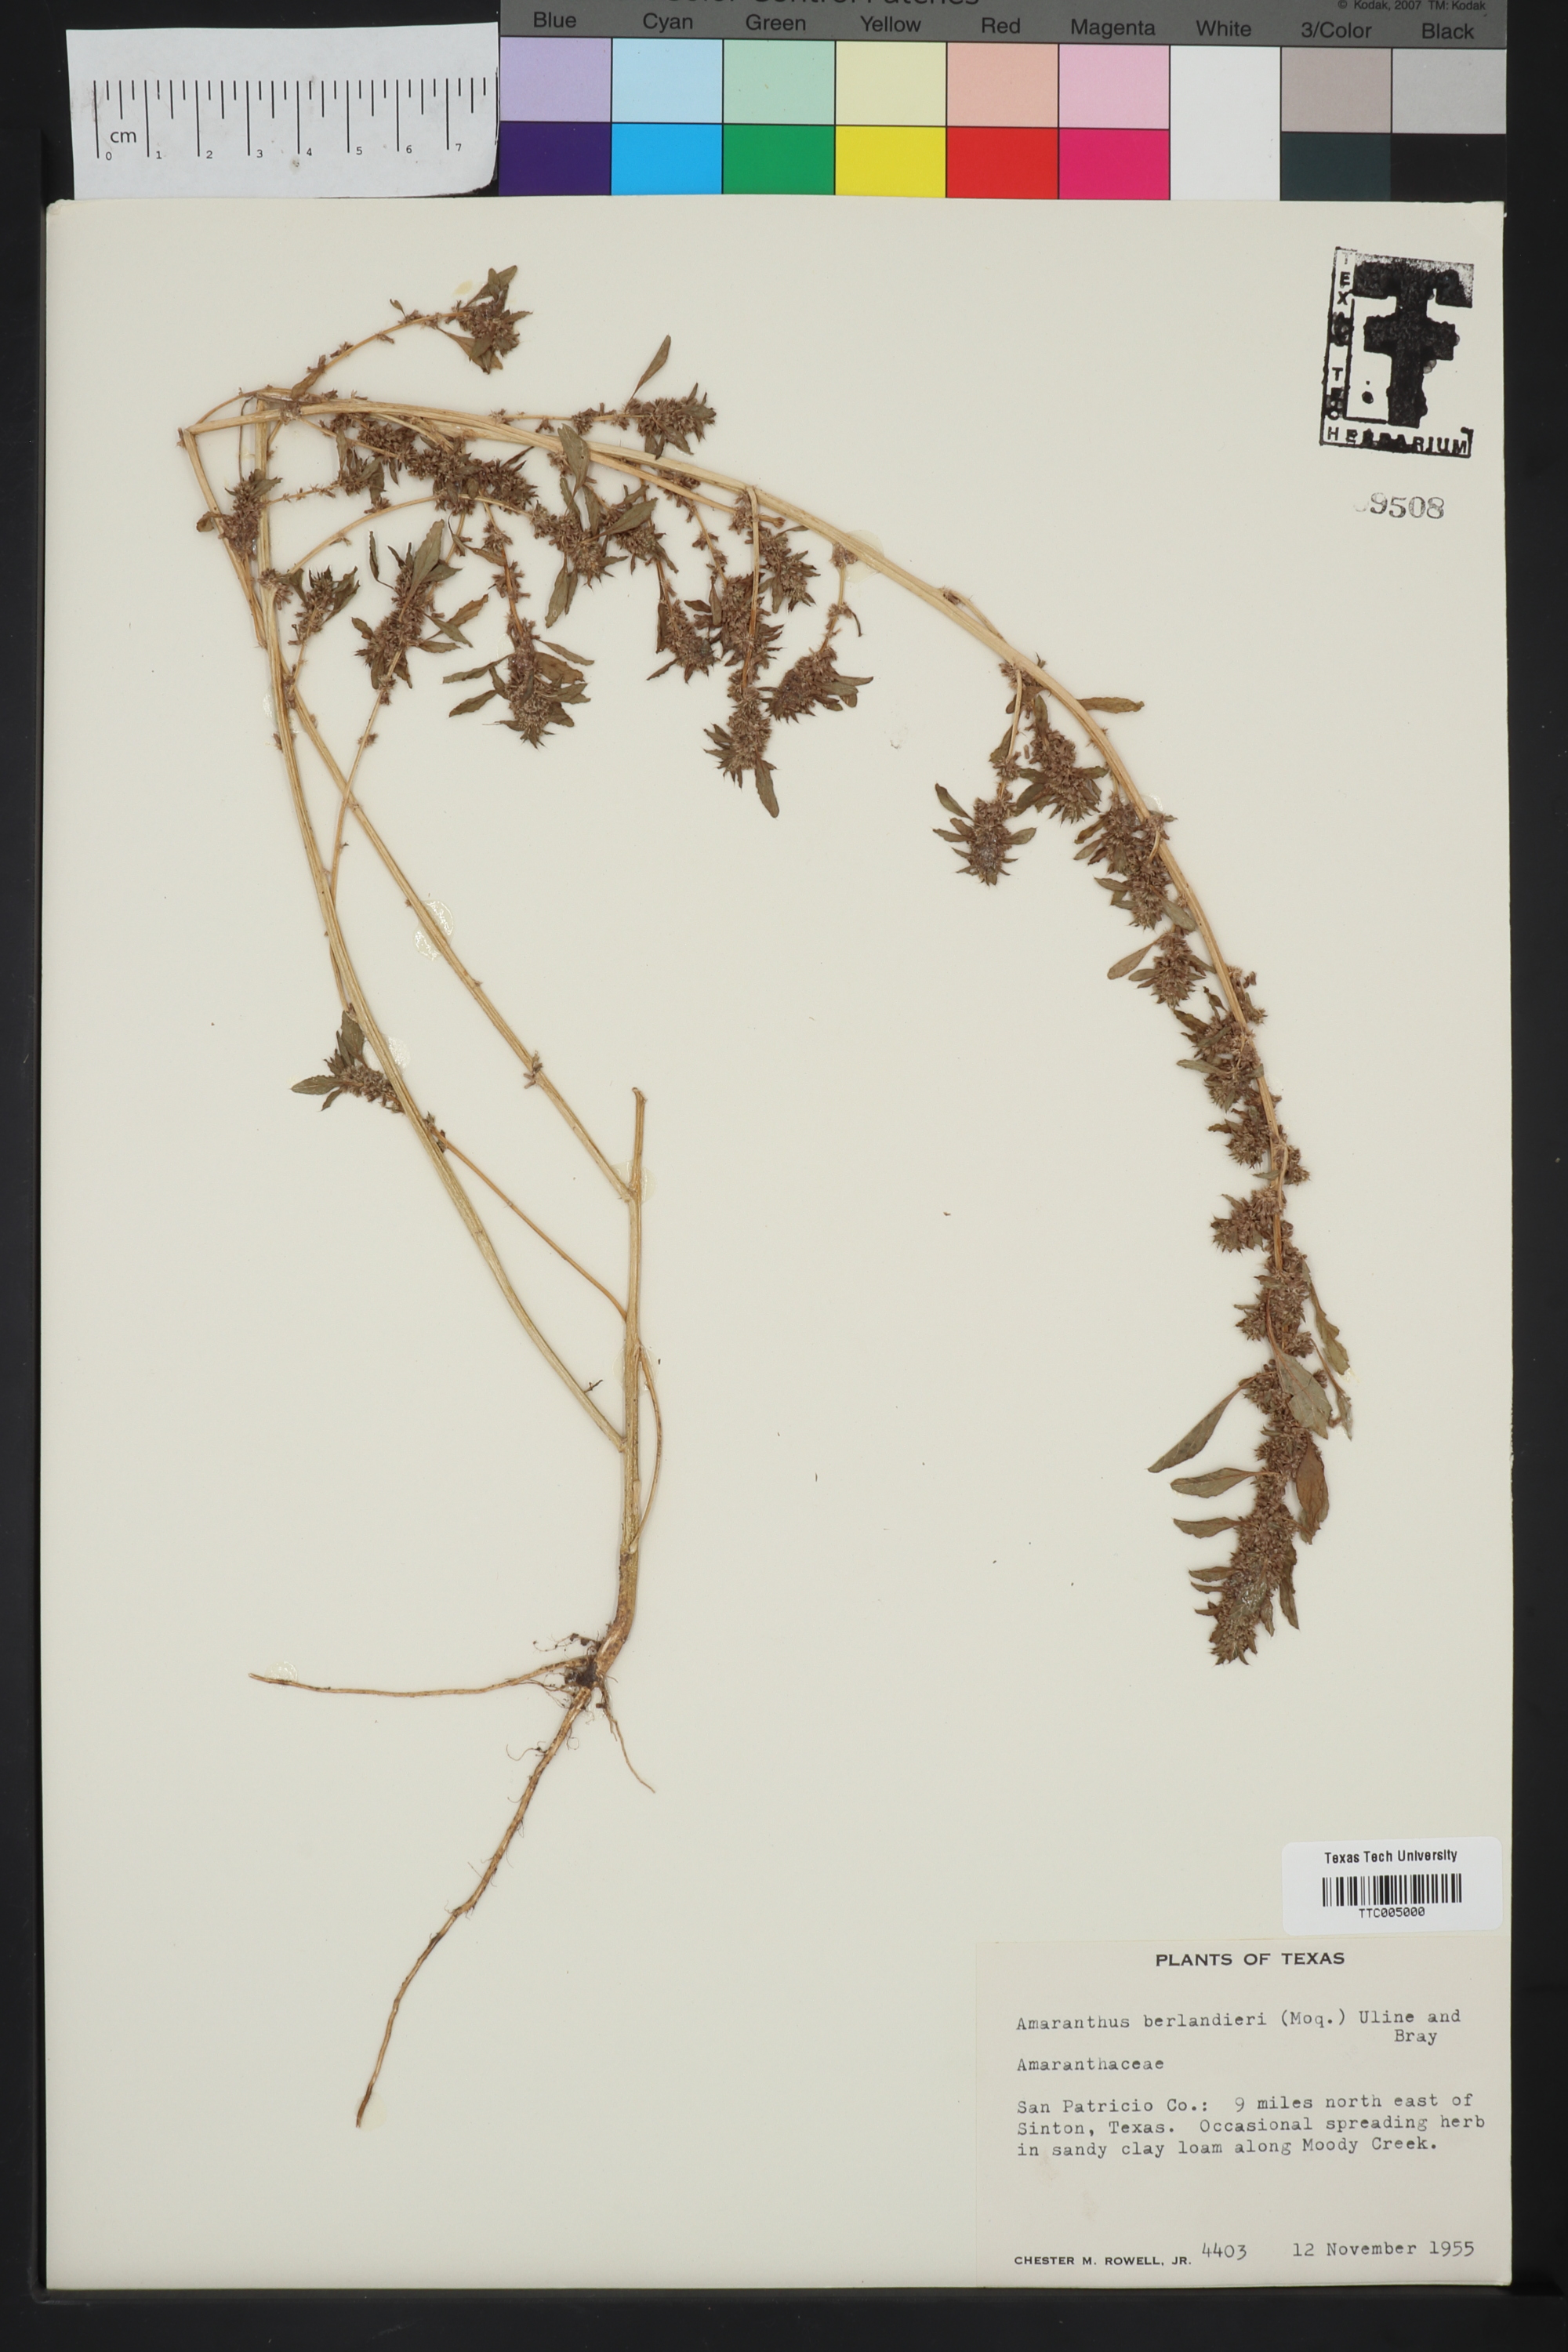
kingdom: Plantae
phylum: Tracheophyta
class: Magnoliopsida
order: Caryophyllales
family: Amaranthaceae
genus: Amaranthus
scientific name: Amaranthus polygonoides
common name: Tropical amaranth
